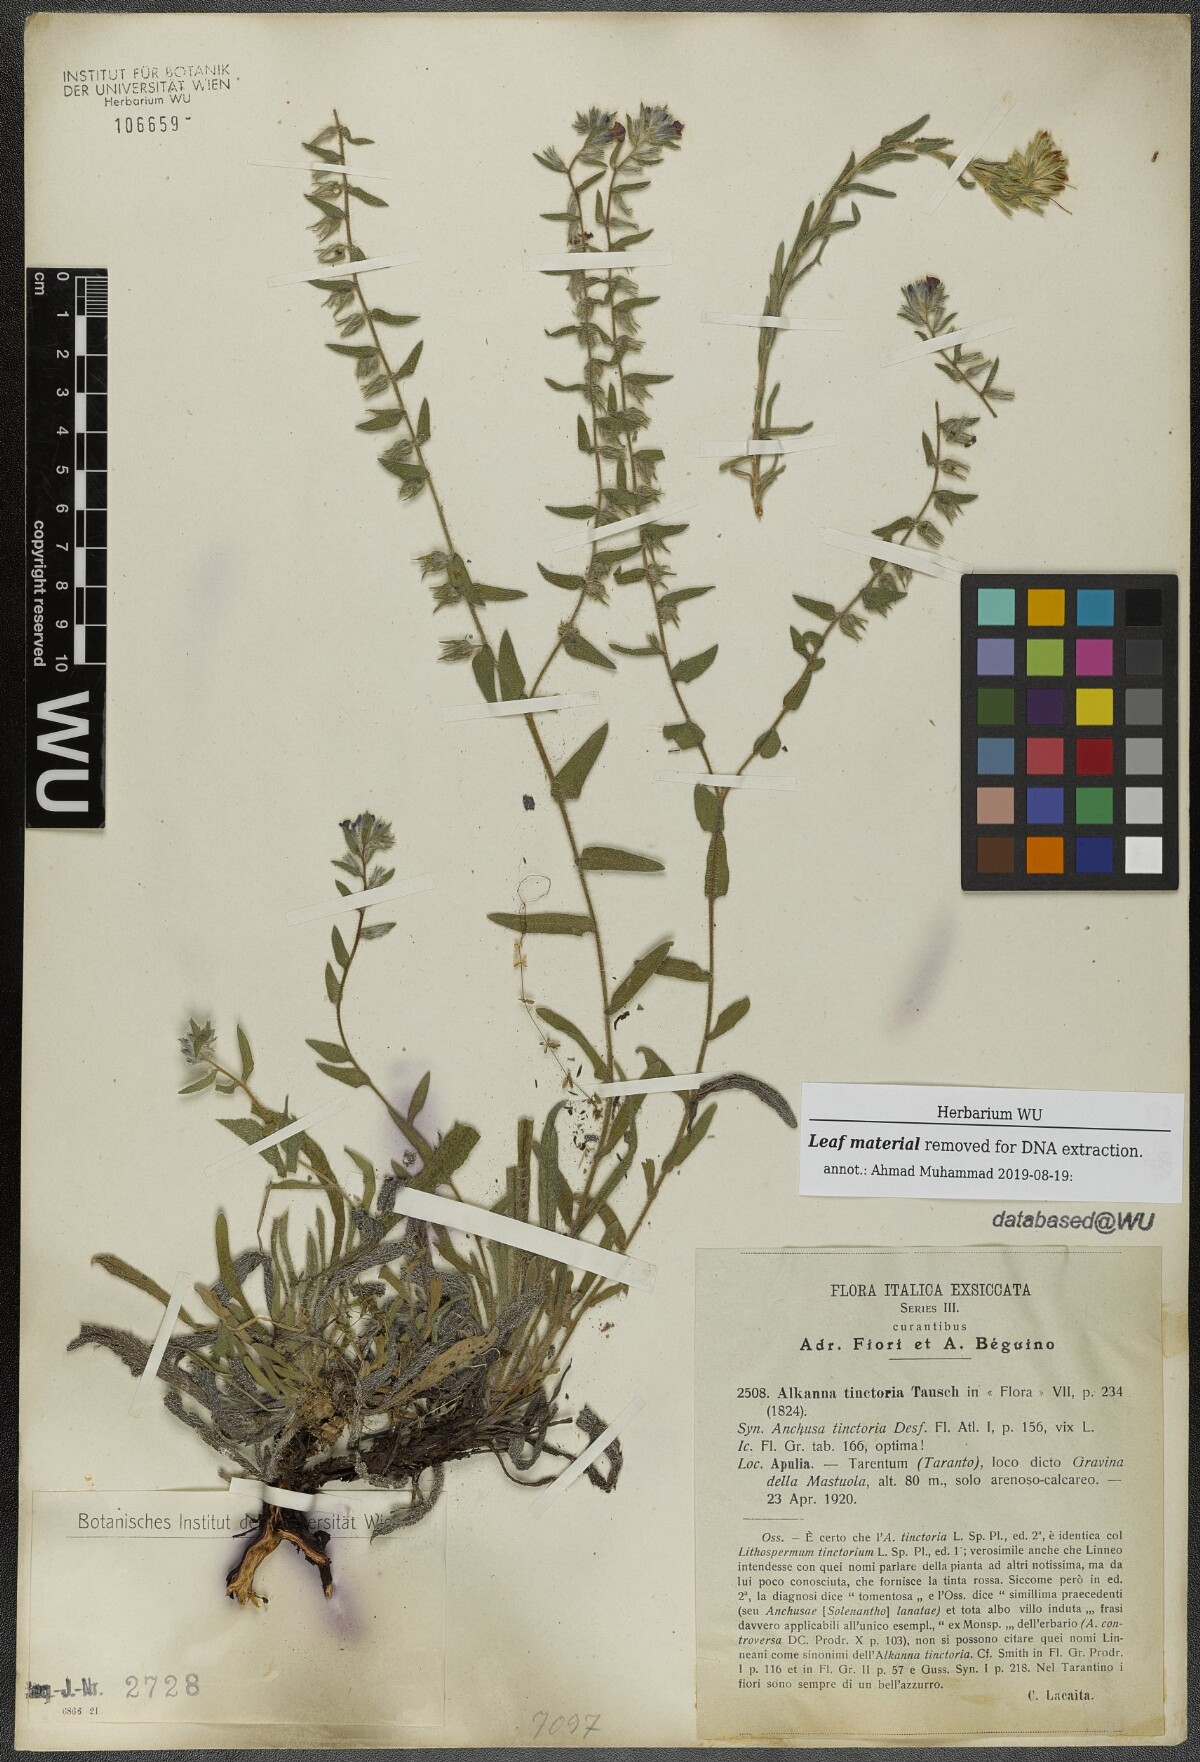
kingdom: Plantae
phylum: Tracheophyta
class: Magnoliopsida
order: Boraginales
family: Boraginaceae
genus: Alkanna
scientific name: Alkanna tinctoria
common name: Dyer's-alkanet
